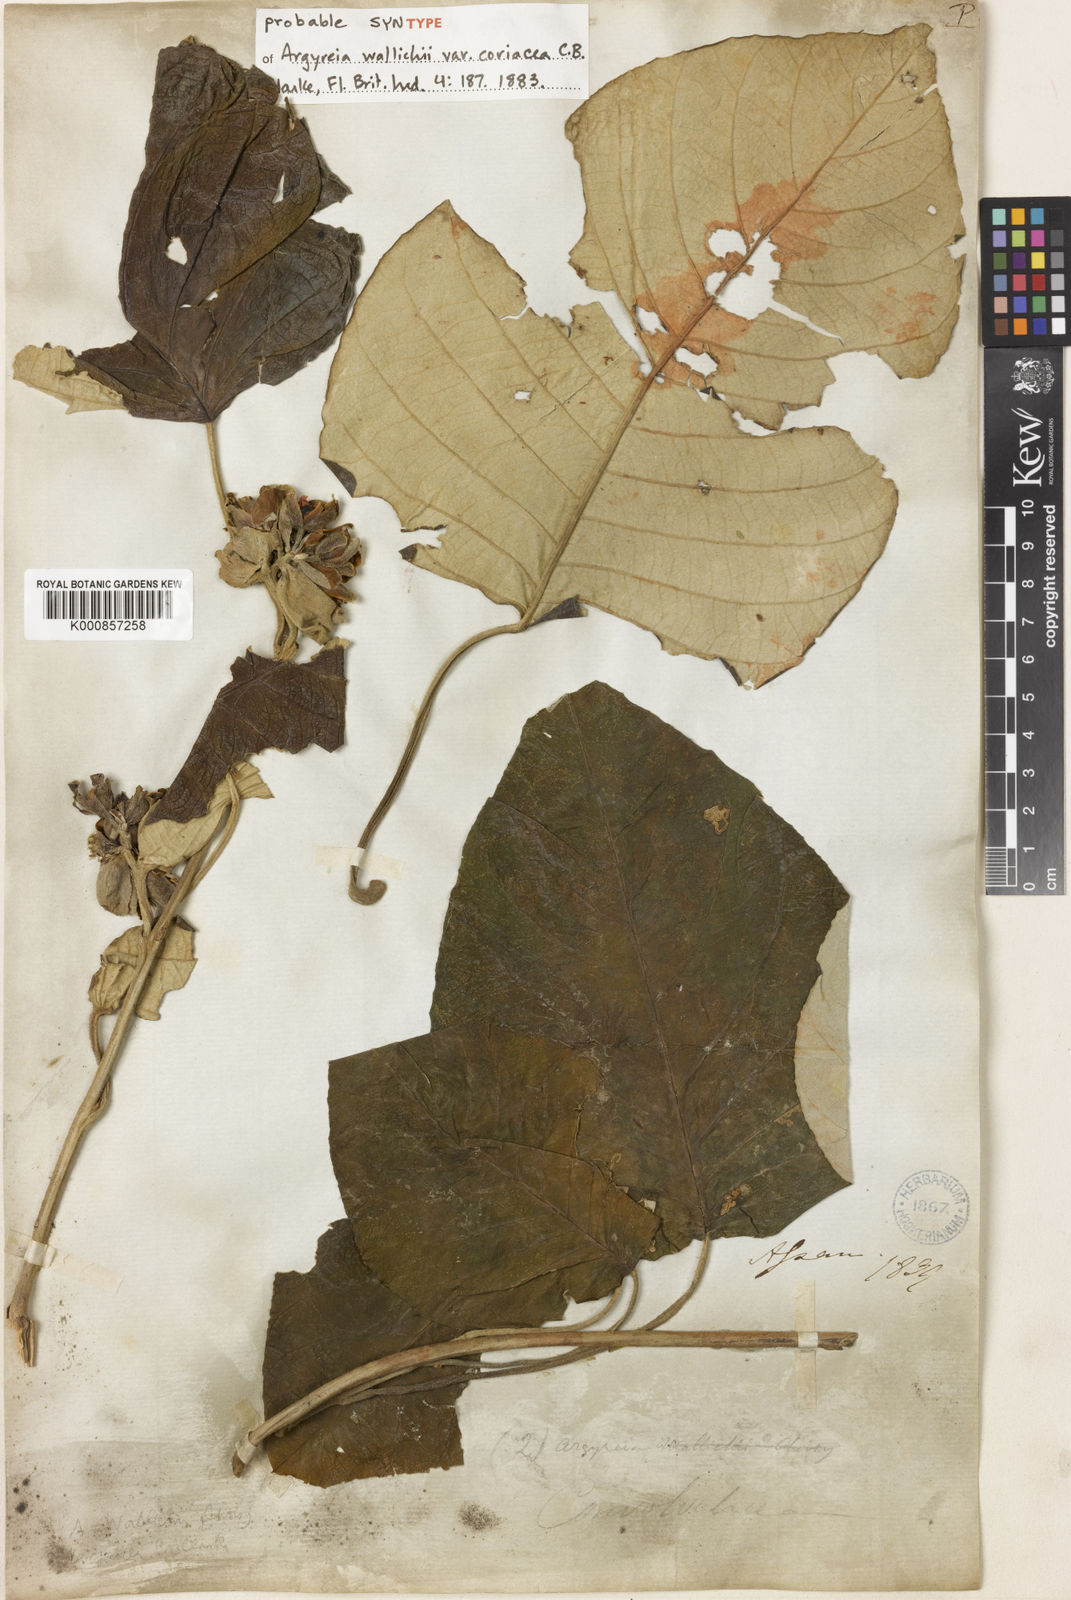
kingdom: Plantae
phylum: Tracheophyta
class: Magnoliopsida
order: Solanales
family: Convolvulaceae
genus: Argyreia
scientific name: Argyreia wallichii
